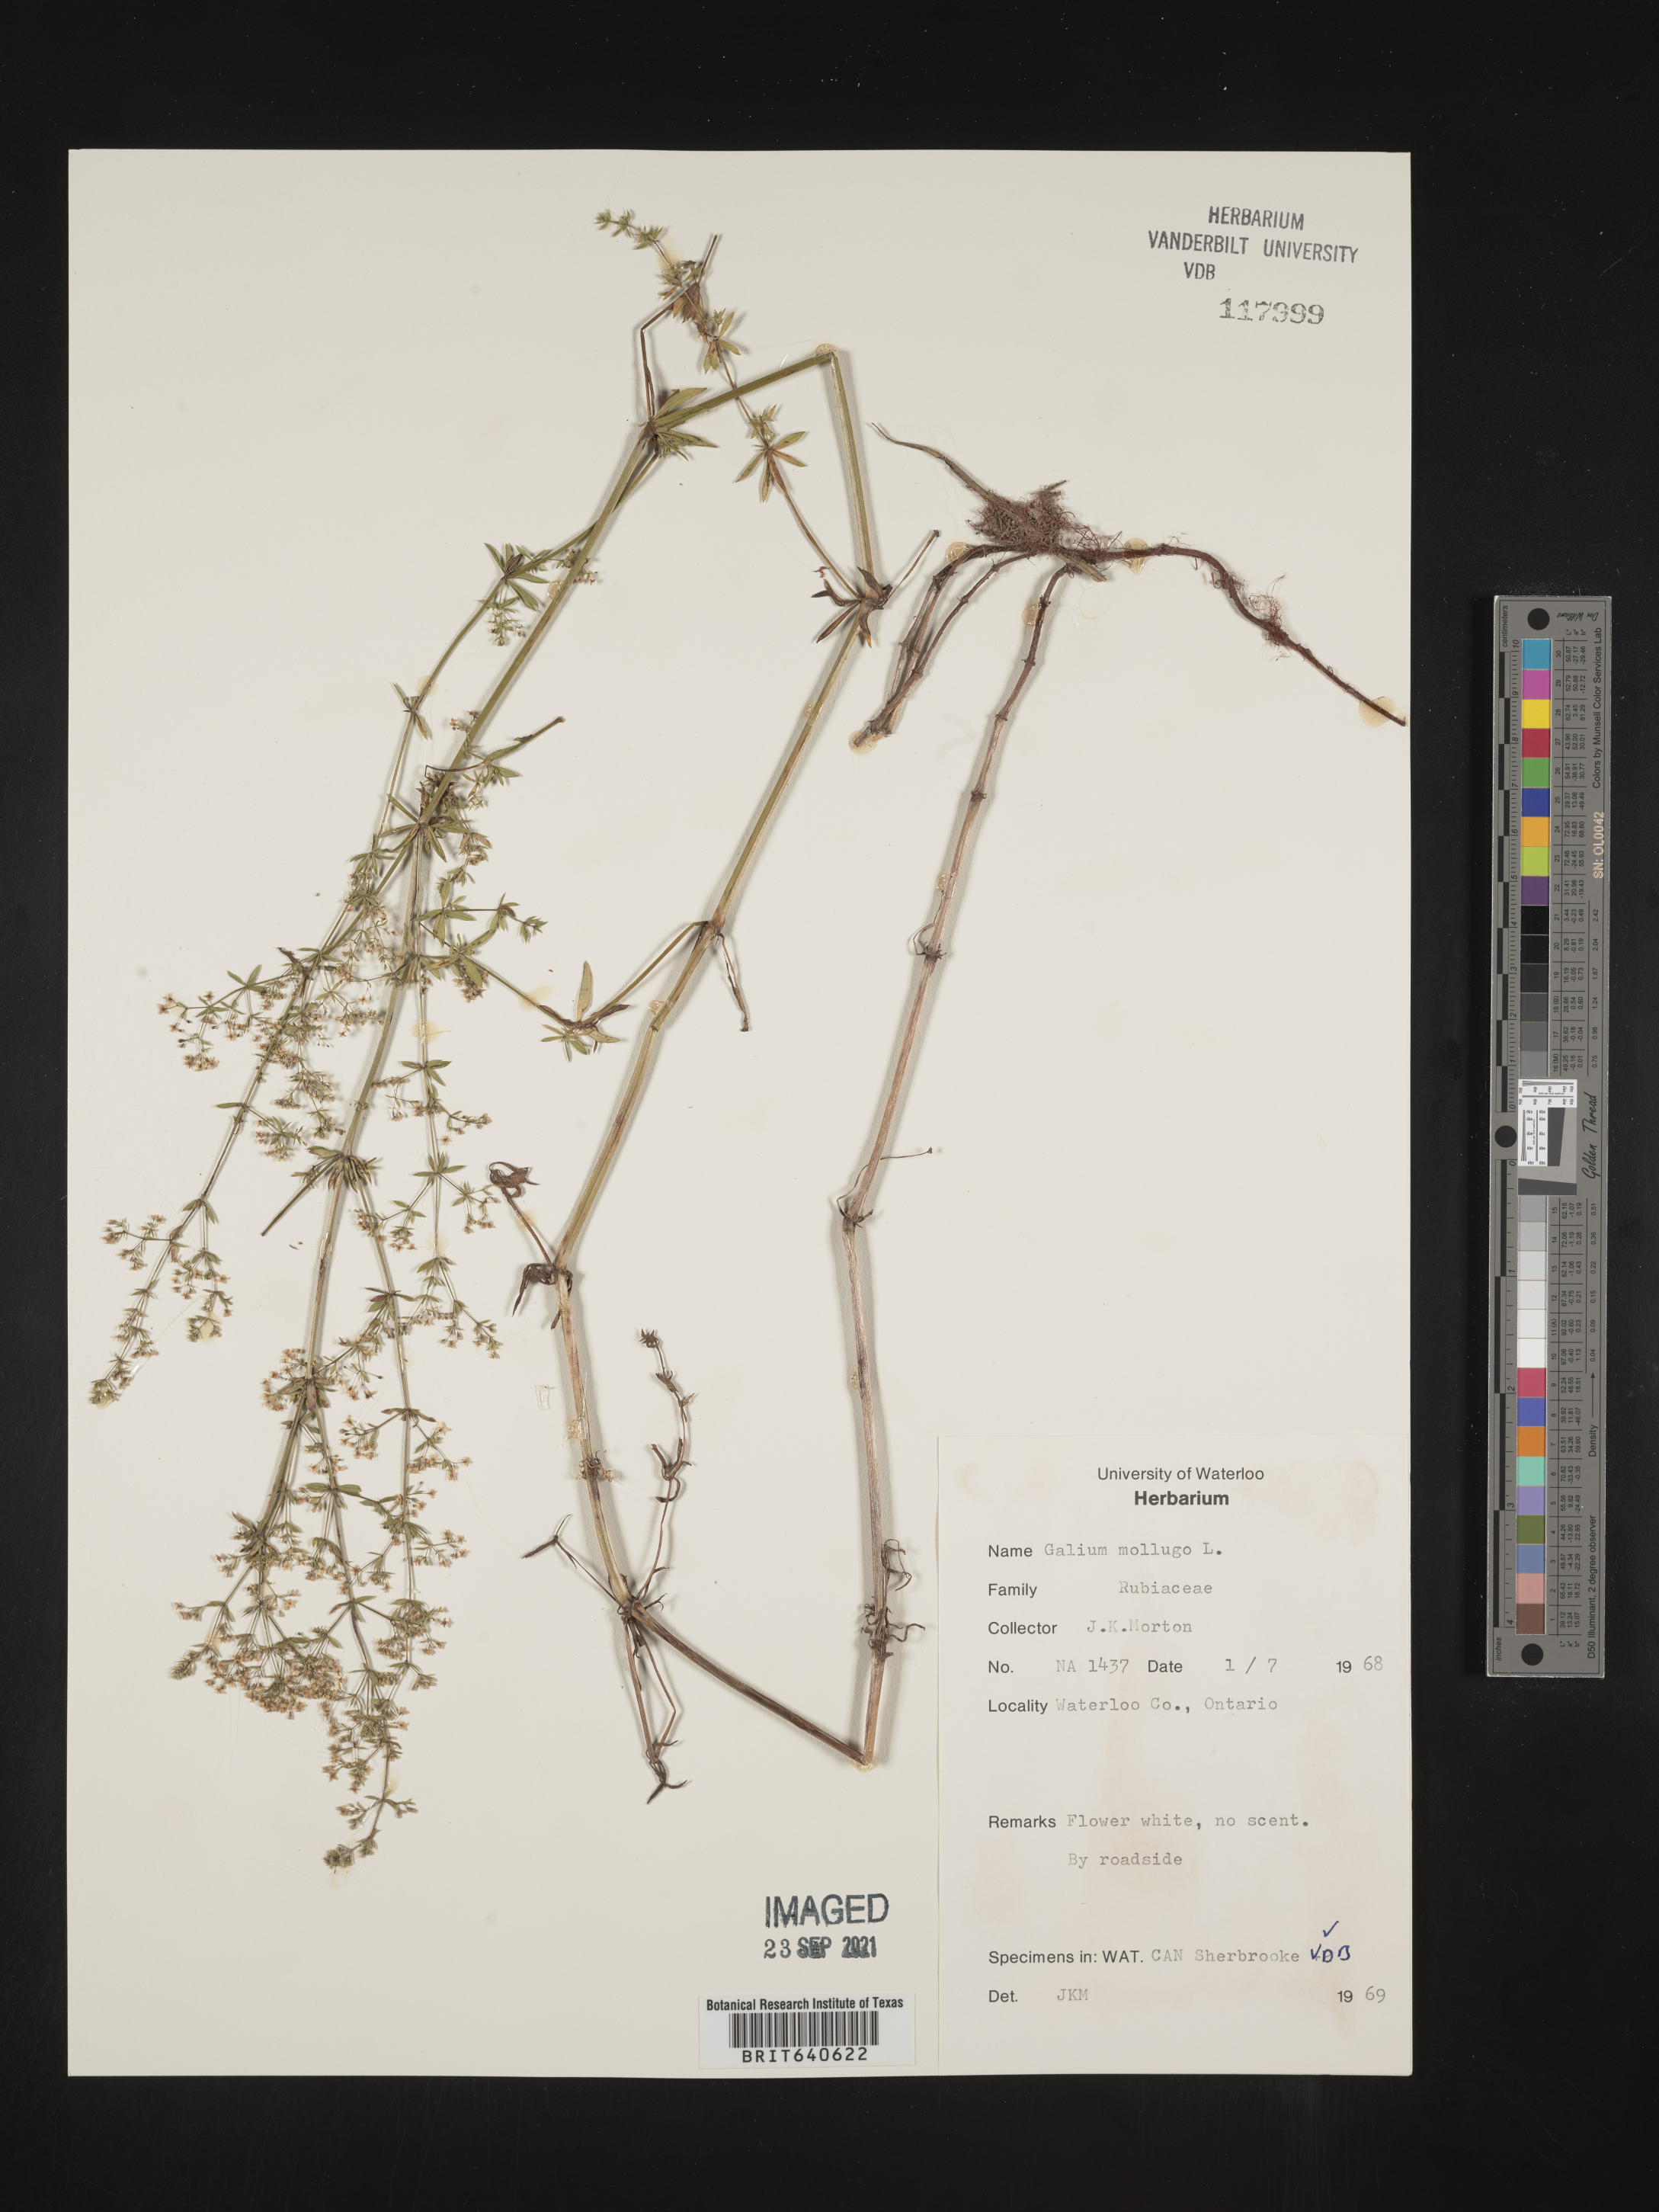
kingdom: Plantae
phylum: Tracheophyta
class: Magnoliopsida
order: Gentianales
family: Rubiaceae
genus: Galium
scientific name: Galium
